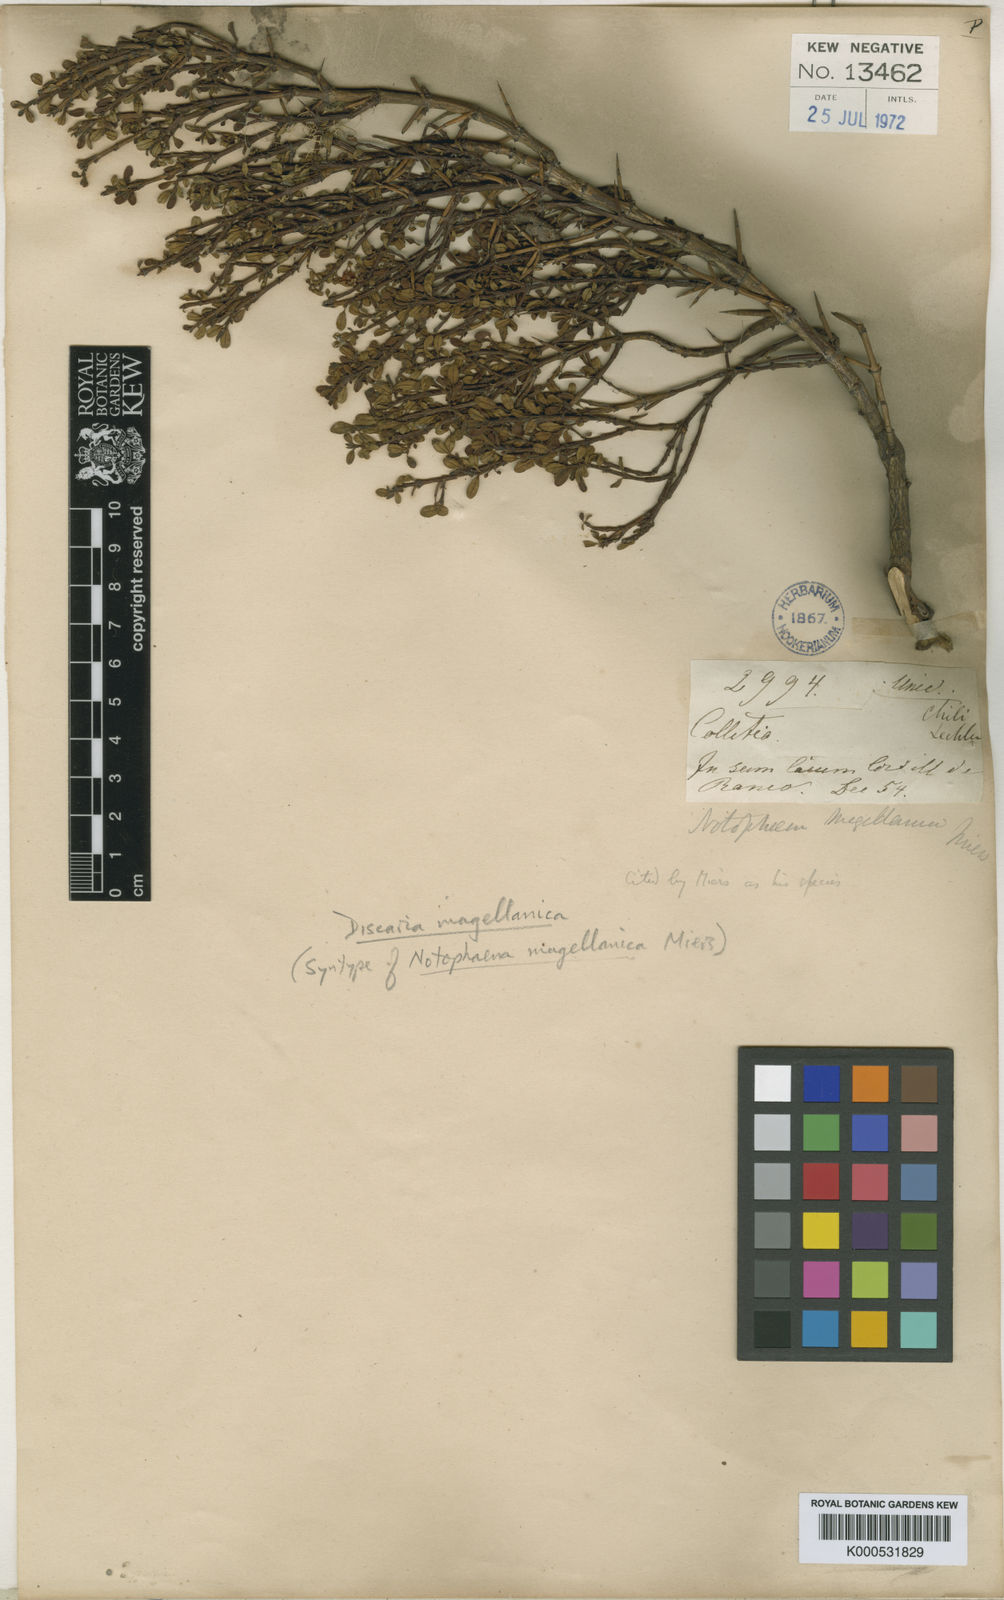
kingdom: Plantae
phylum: Tracheophyta
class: Magnoliopsida
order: Rosales
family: Rhamnaceae
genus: Discaria
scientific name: Discaria chacaye
